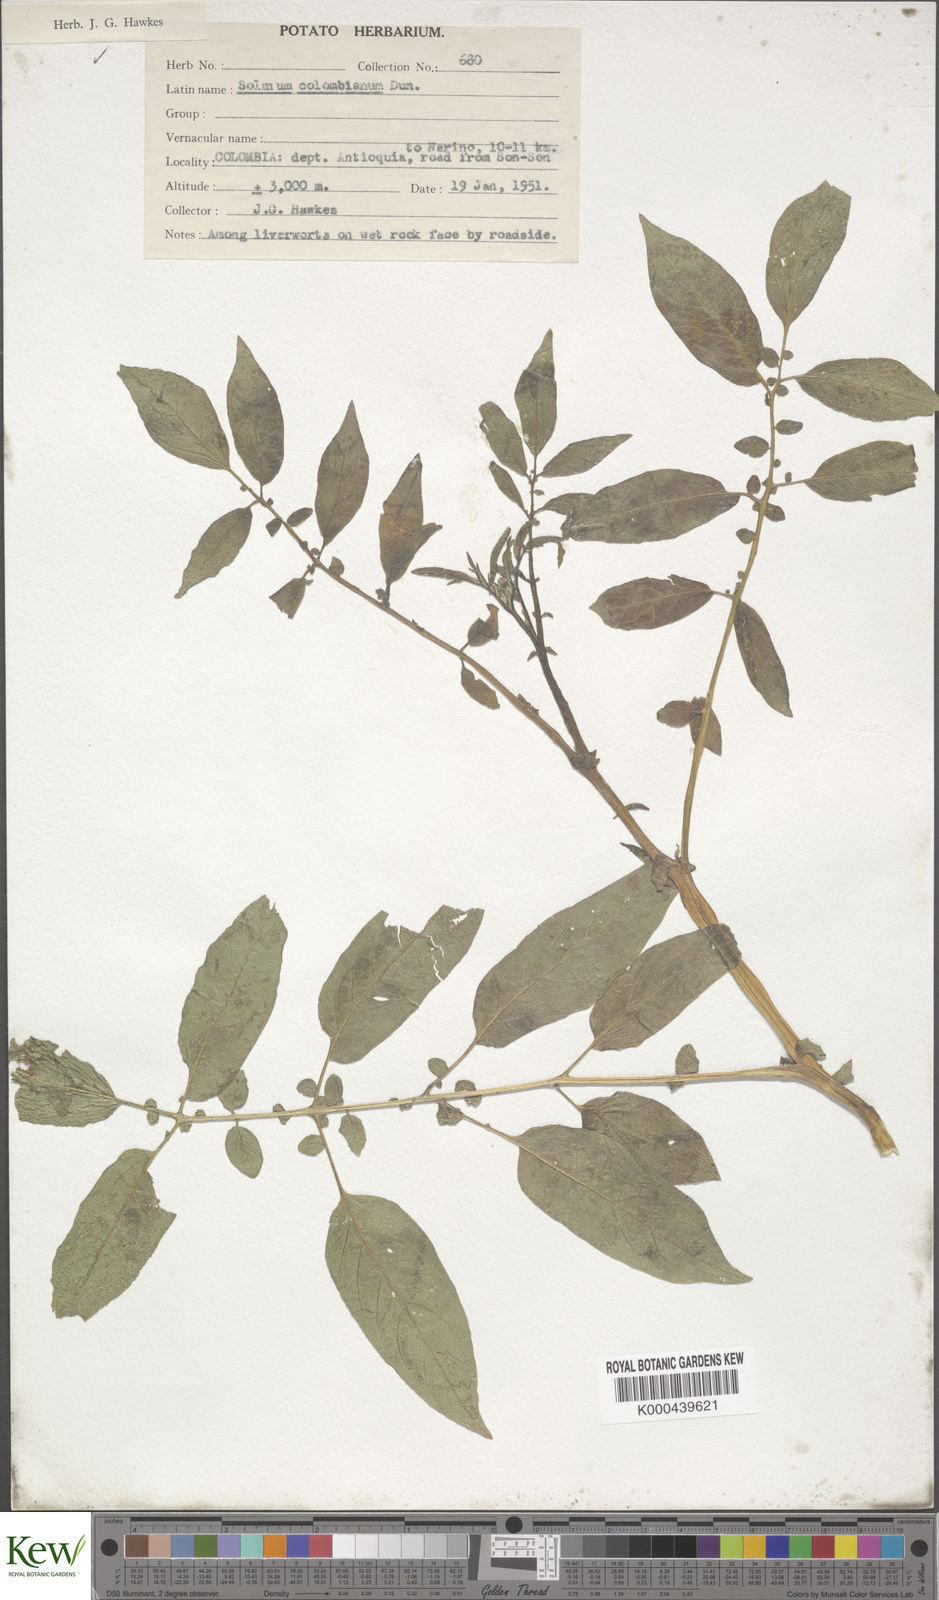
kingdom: Plantae
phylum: Tracheophyta
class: Magnoliopsida
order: Solanales
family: Solanaceae
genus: Solanum
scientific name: Solanum colombianum
